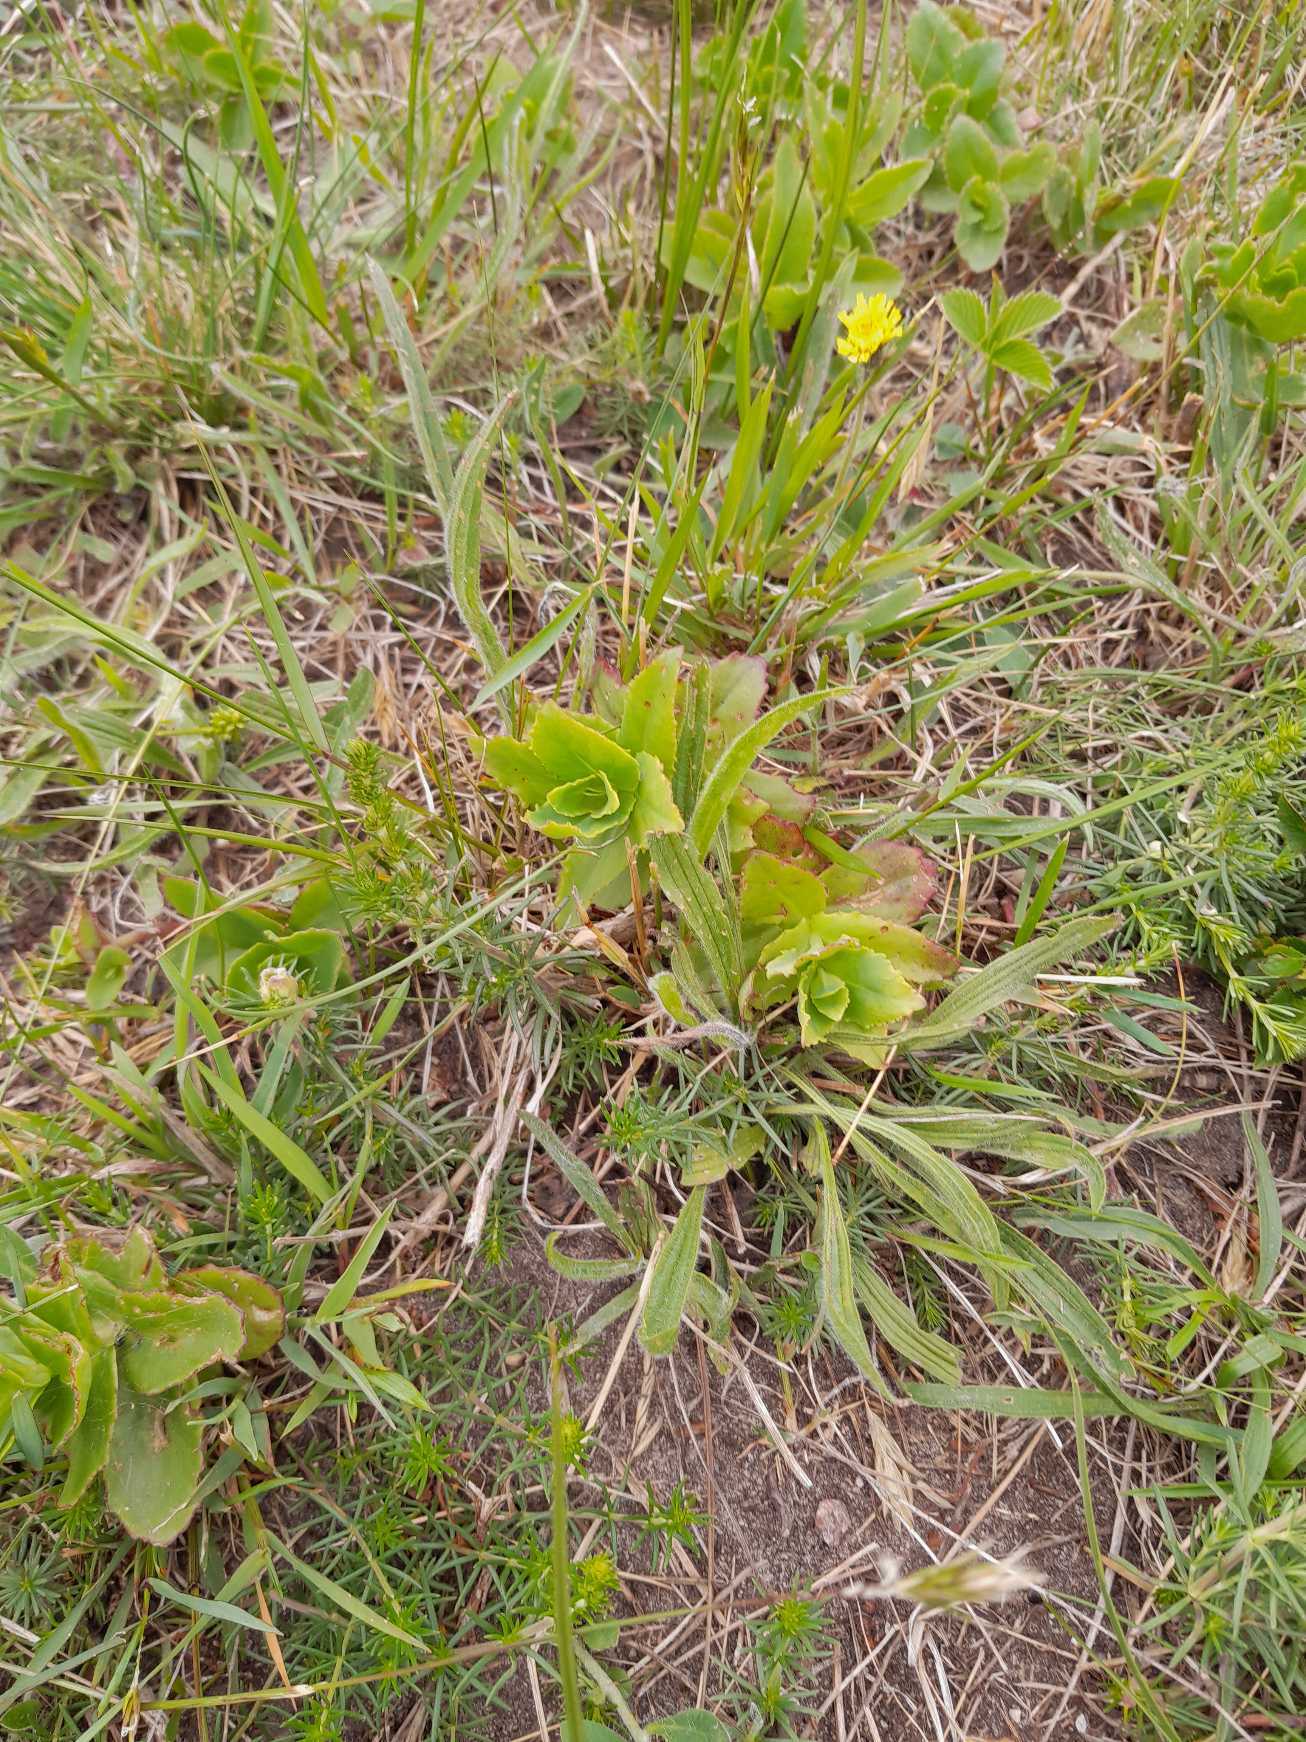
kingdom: Plantae
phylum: Tracheophyta
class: Magnoliopsida
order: Saxifragales
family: Crassulaceae
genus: Hylotelephium
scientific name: Hylotelephium telephium
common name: Sankthansurt
